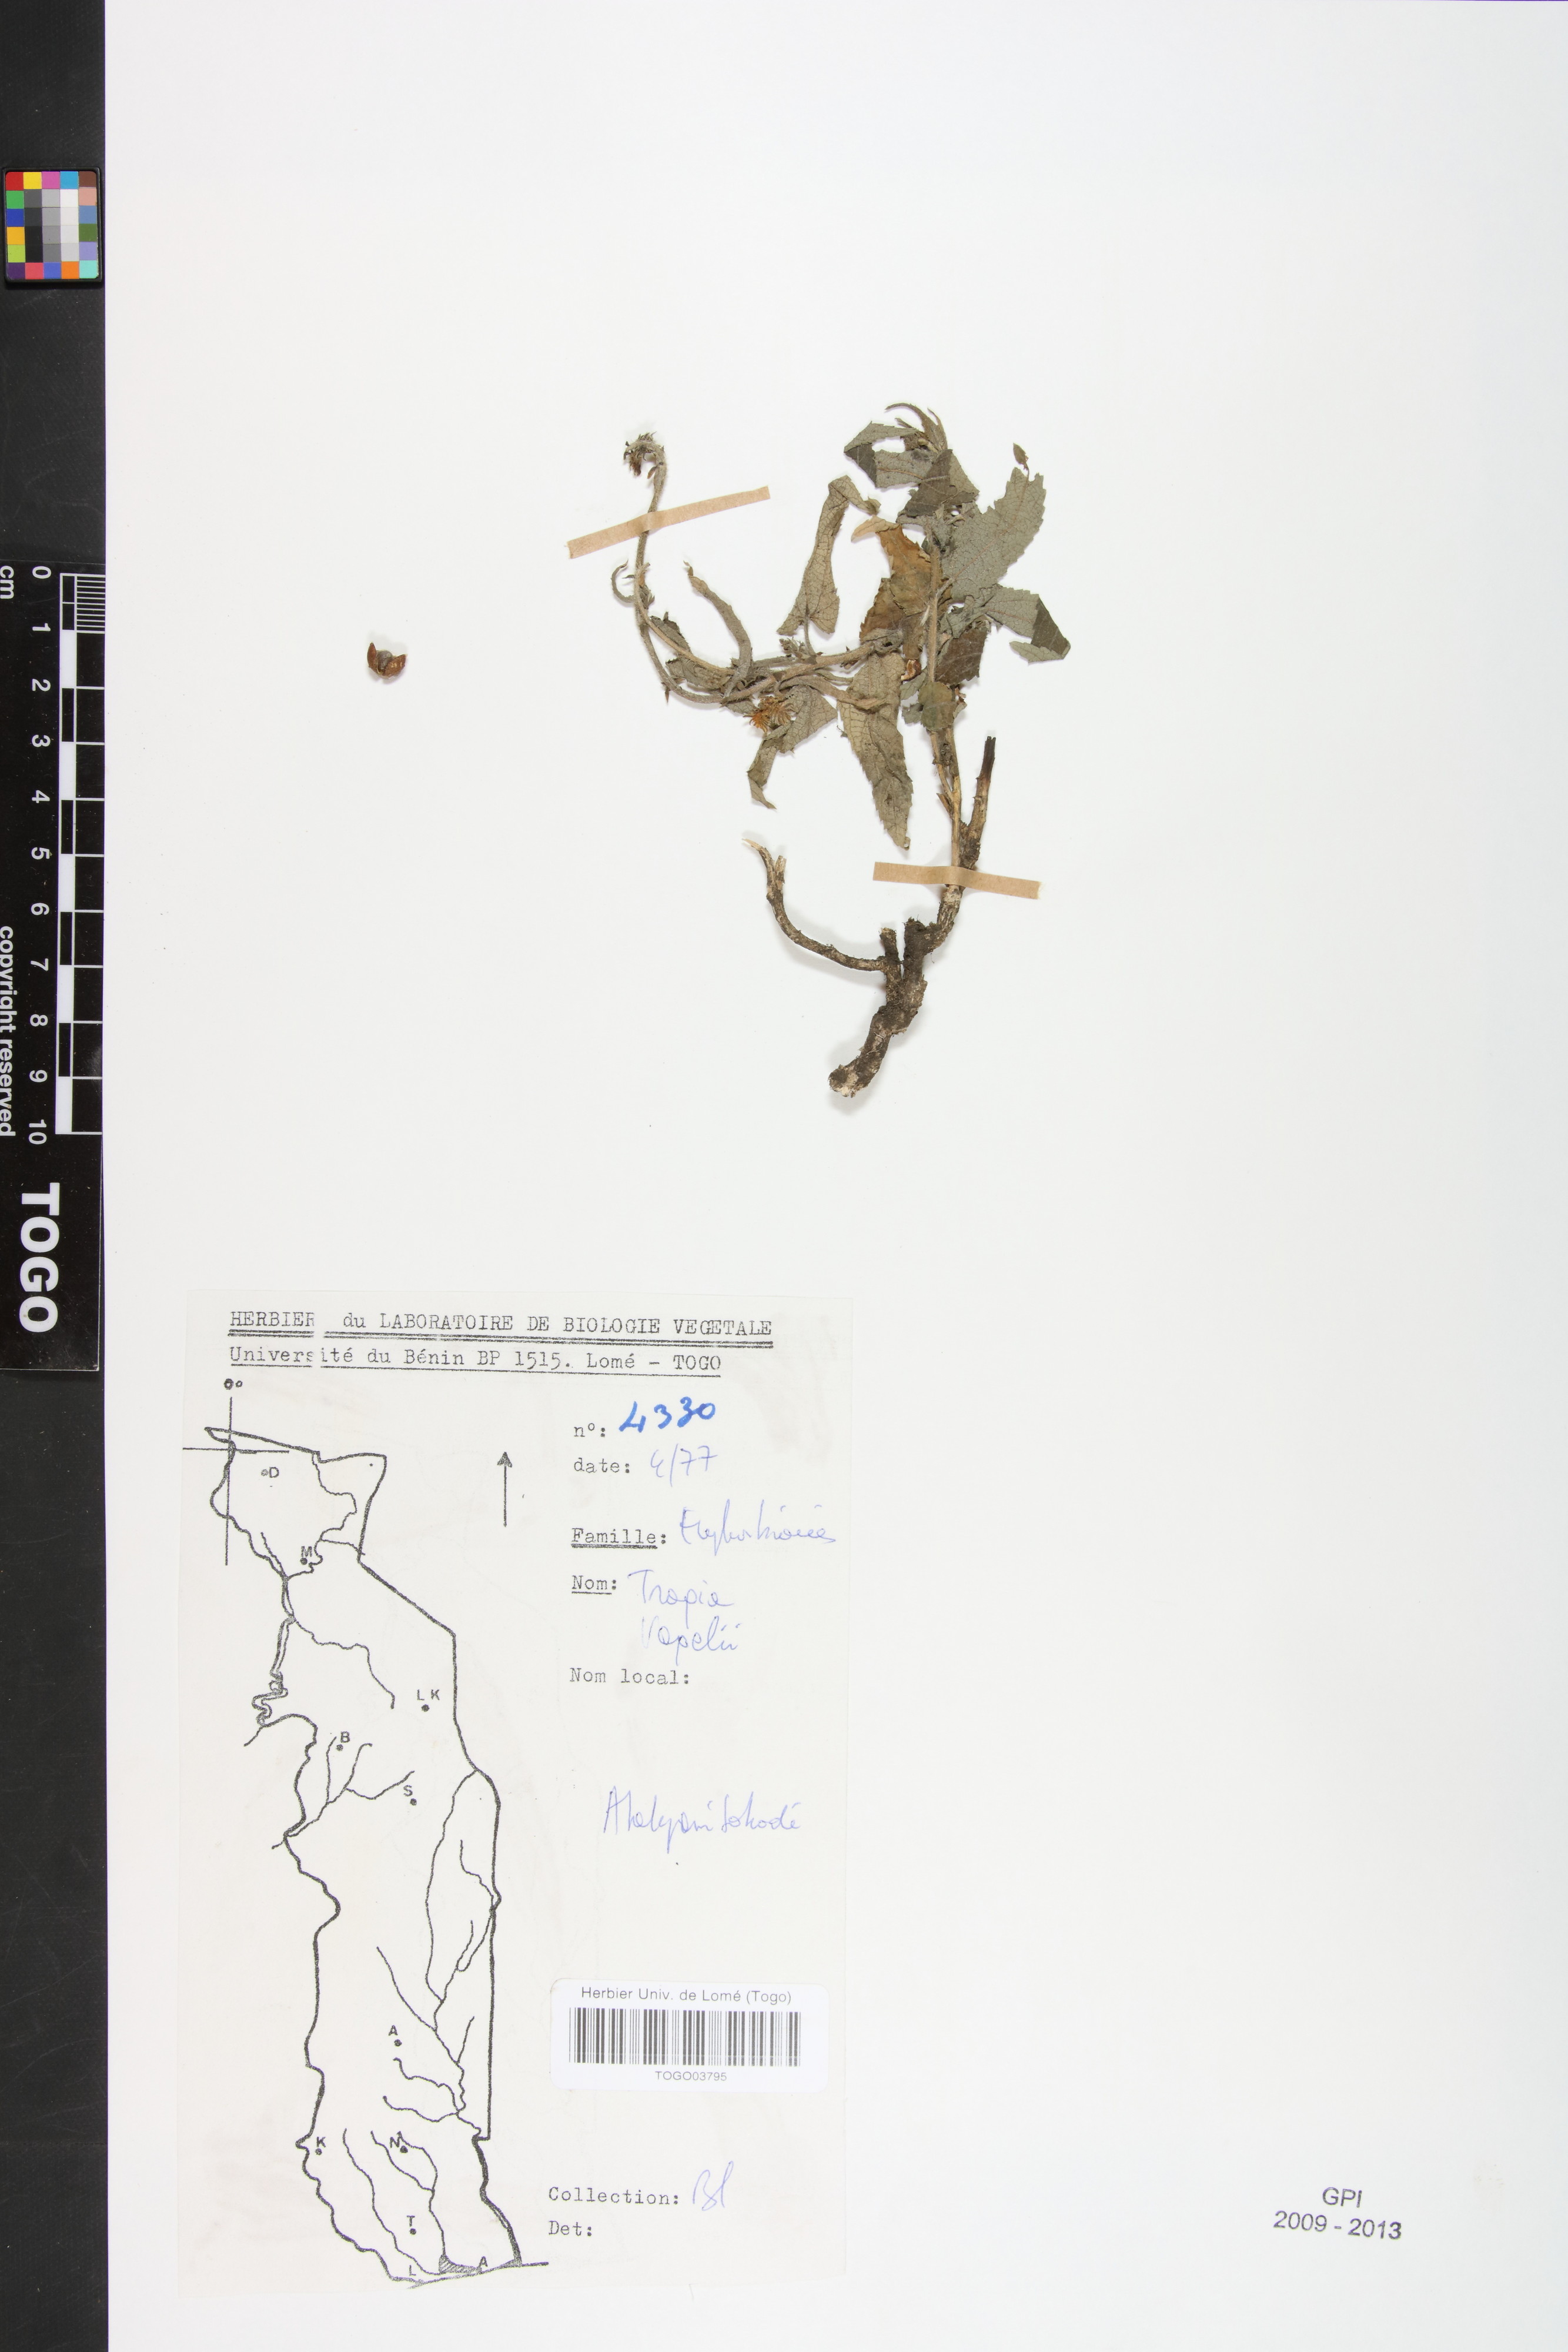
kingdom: Plantae
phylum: Tracheophyta
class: Magnoliopsida
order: Malpighiales
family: Euphorbiaceae
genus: Tragia
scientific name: Tragia vogelii
